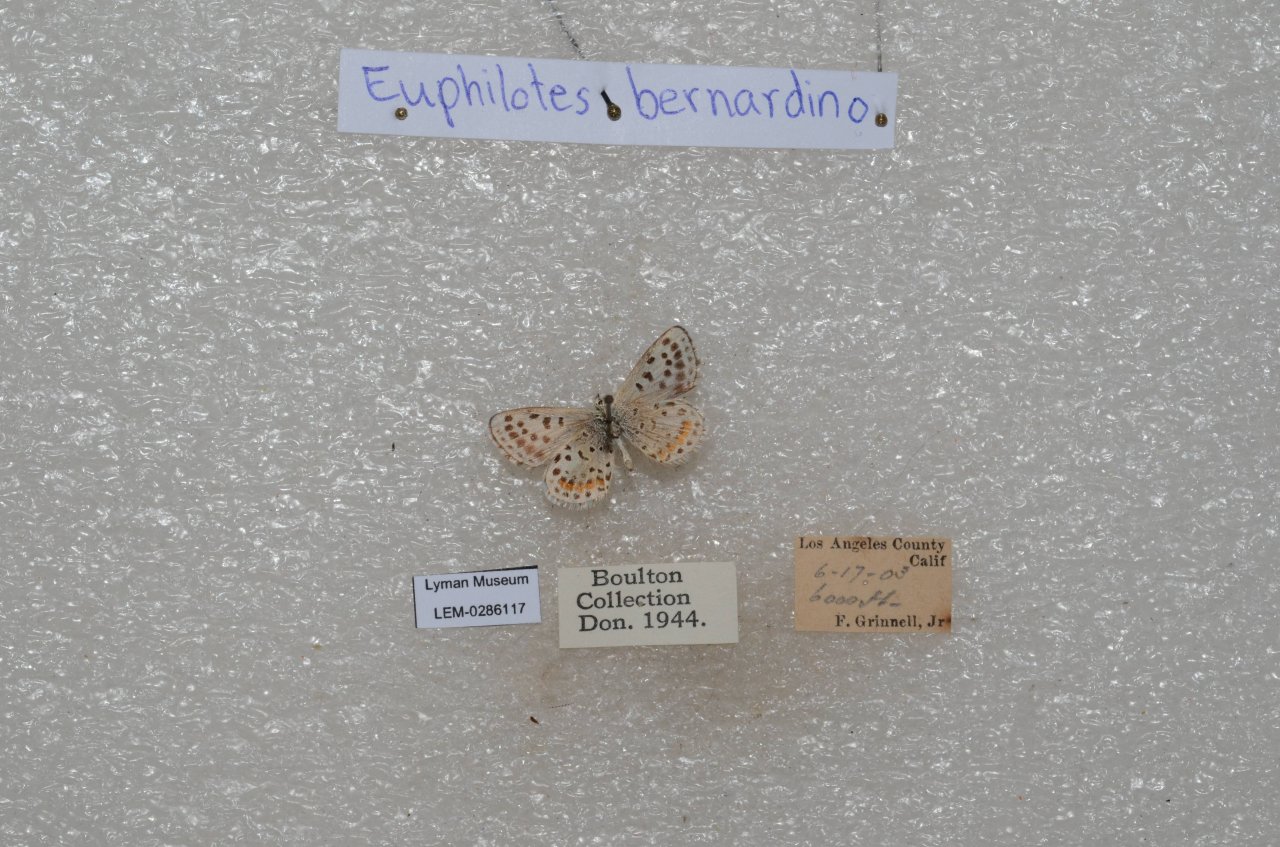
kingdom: Animalia
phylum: Arthropoda
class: Insecta
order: Lepidoptera
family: Lycaenidae
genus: Euphilotes
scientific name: Euphilotes battoides
